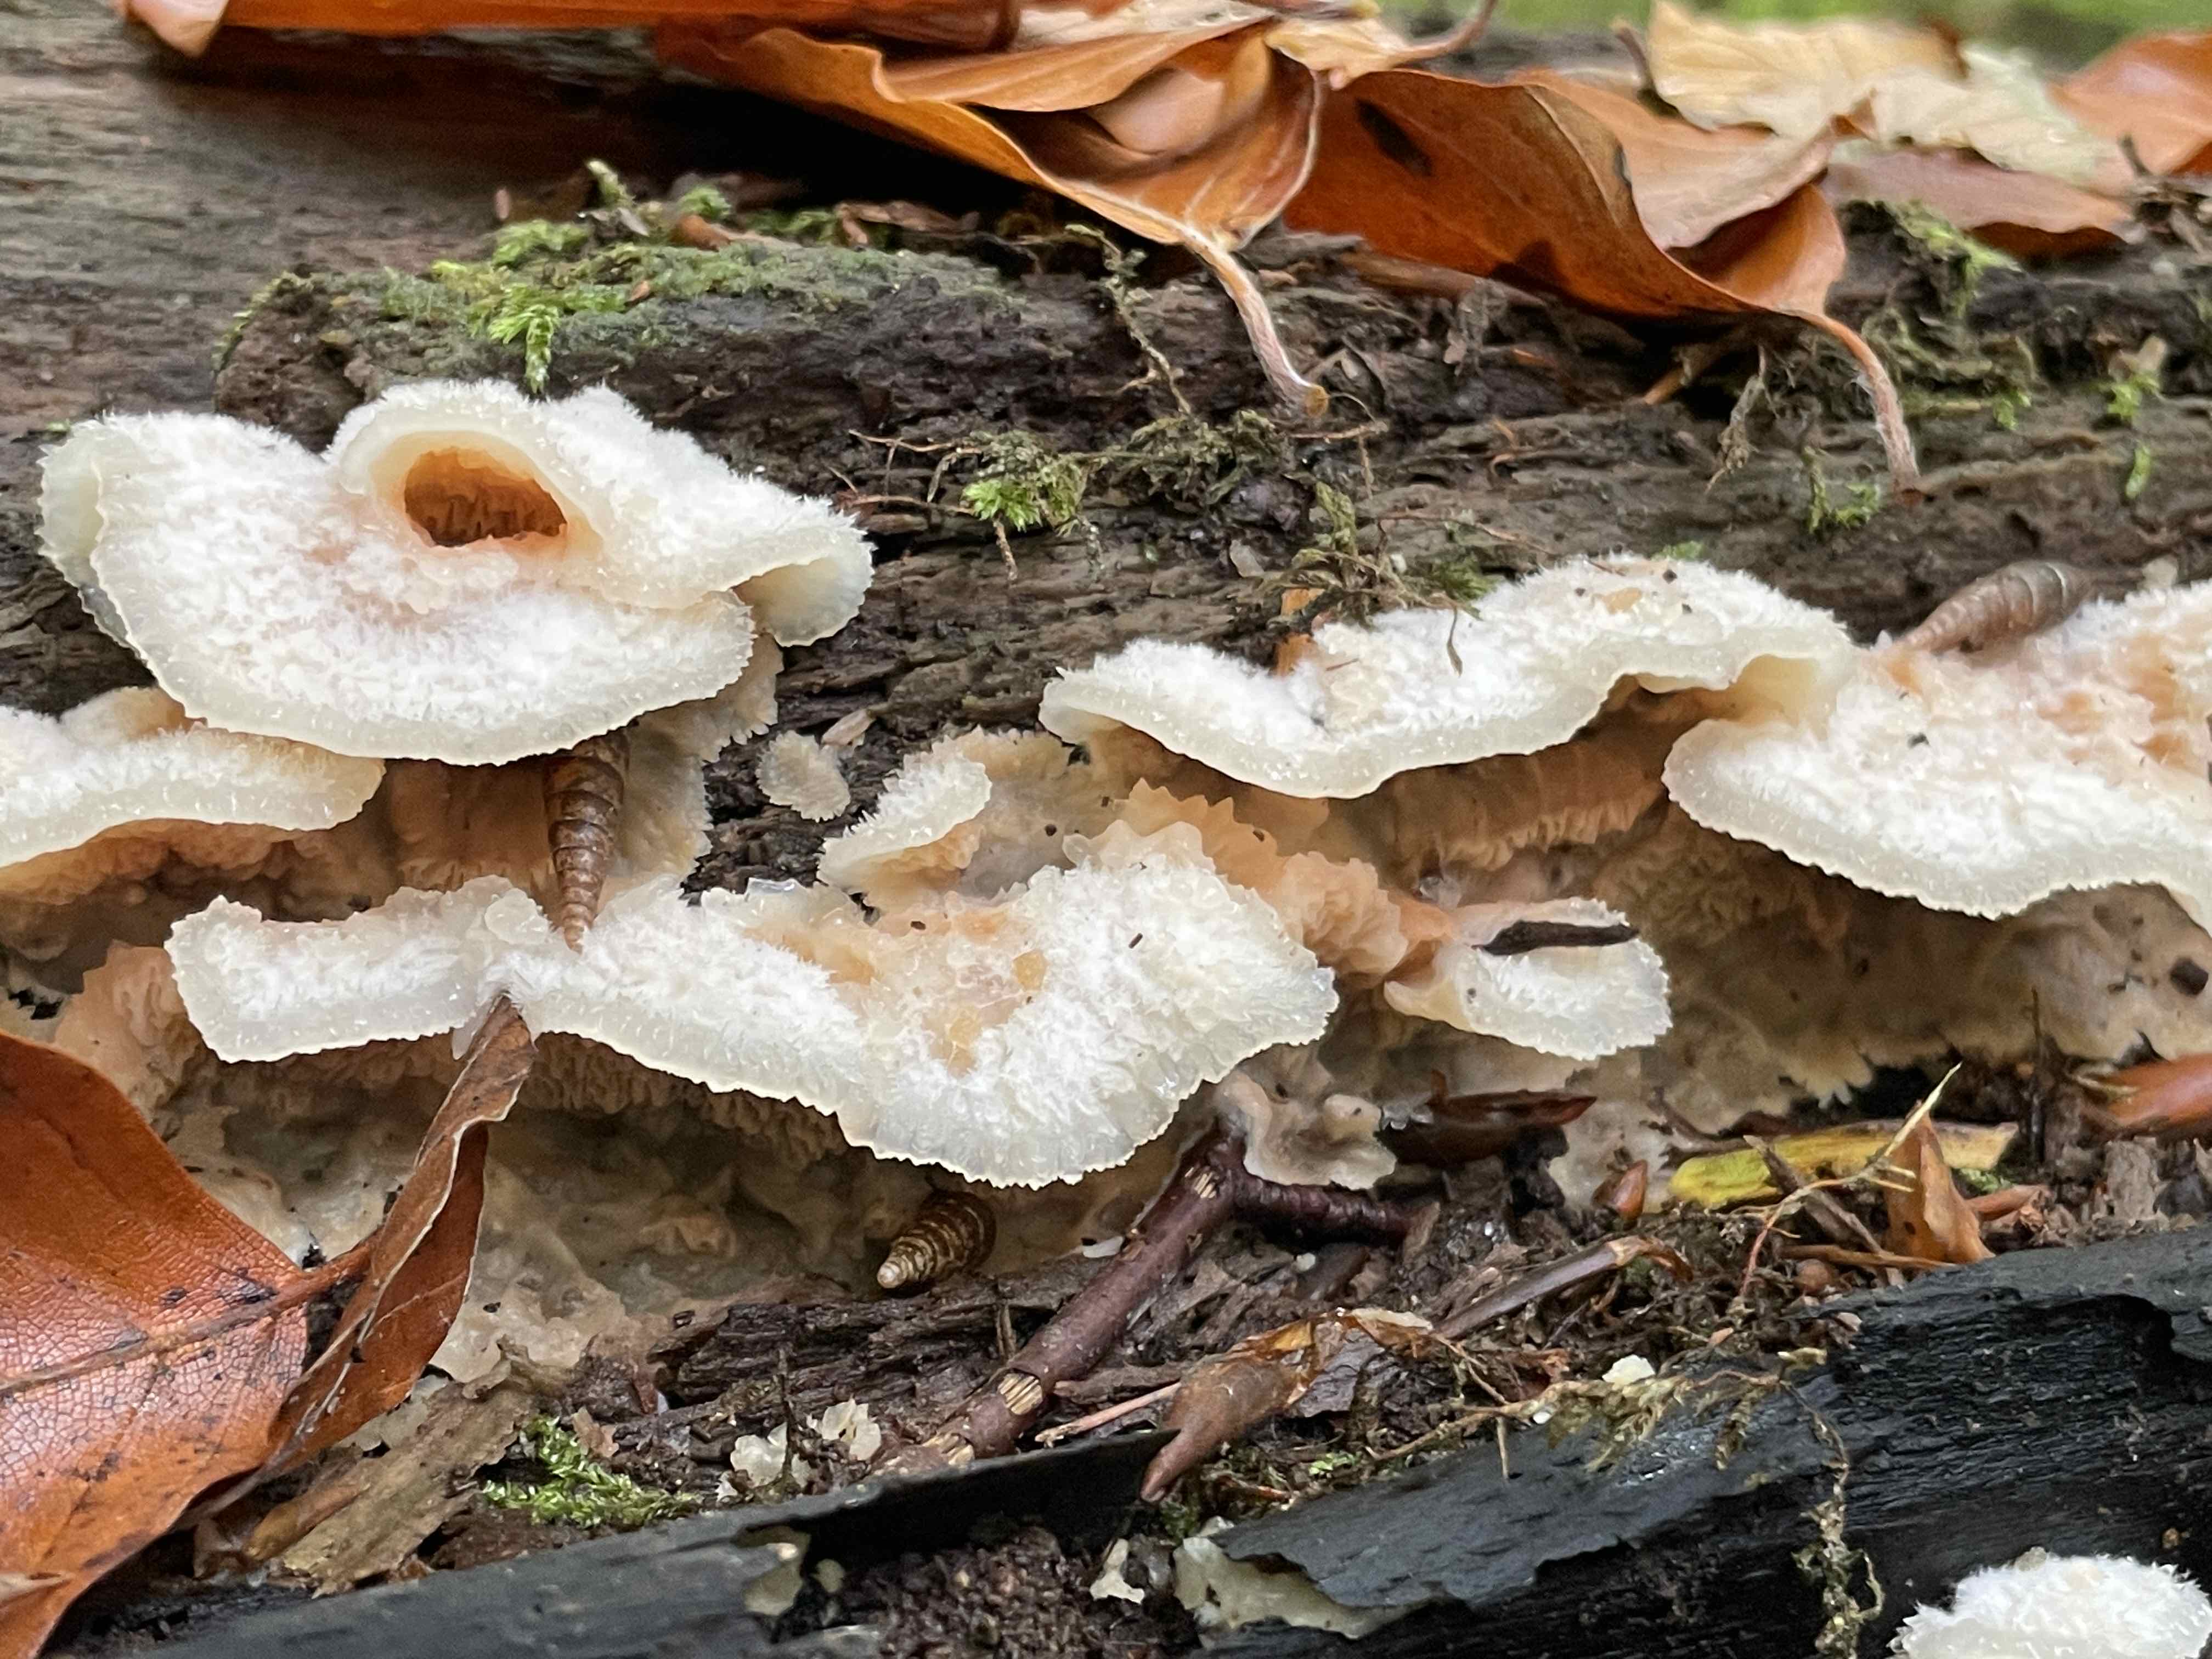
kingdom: Fungi
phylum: Basidiomycota
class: Agaricomycetes
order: Polyporales
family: Meruliaceae
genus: Phlebia
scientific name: Phlebia tremellosa
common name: bævrende åresvamp
